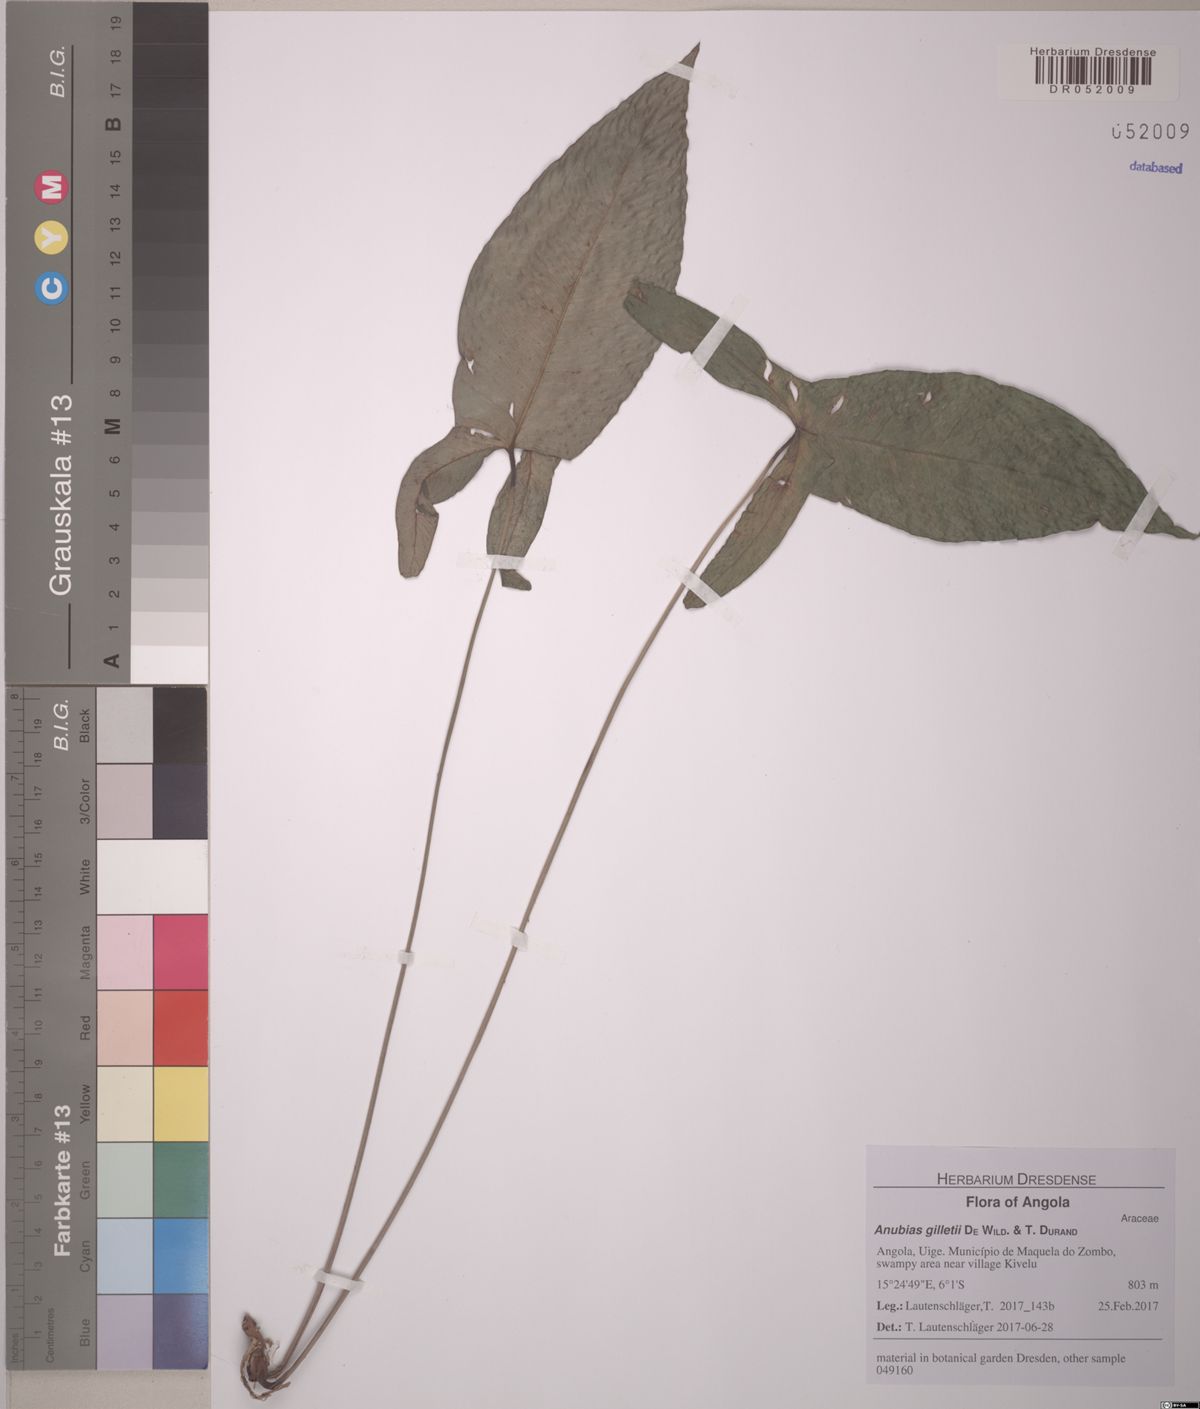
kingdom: Plantae
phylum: Tracheophyta
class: Liliopsida
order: Alismatales
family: Araceae
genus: Anubias
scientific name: Anubias gilletii
